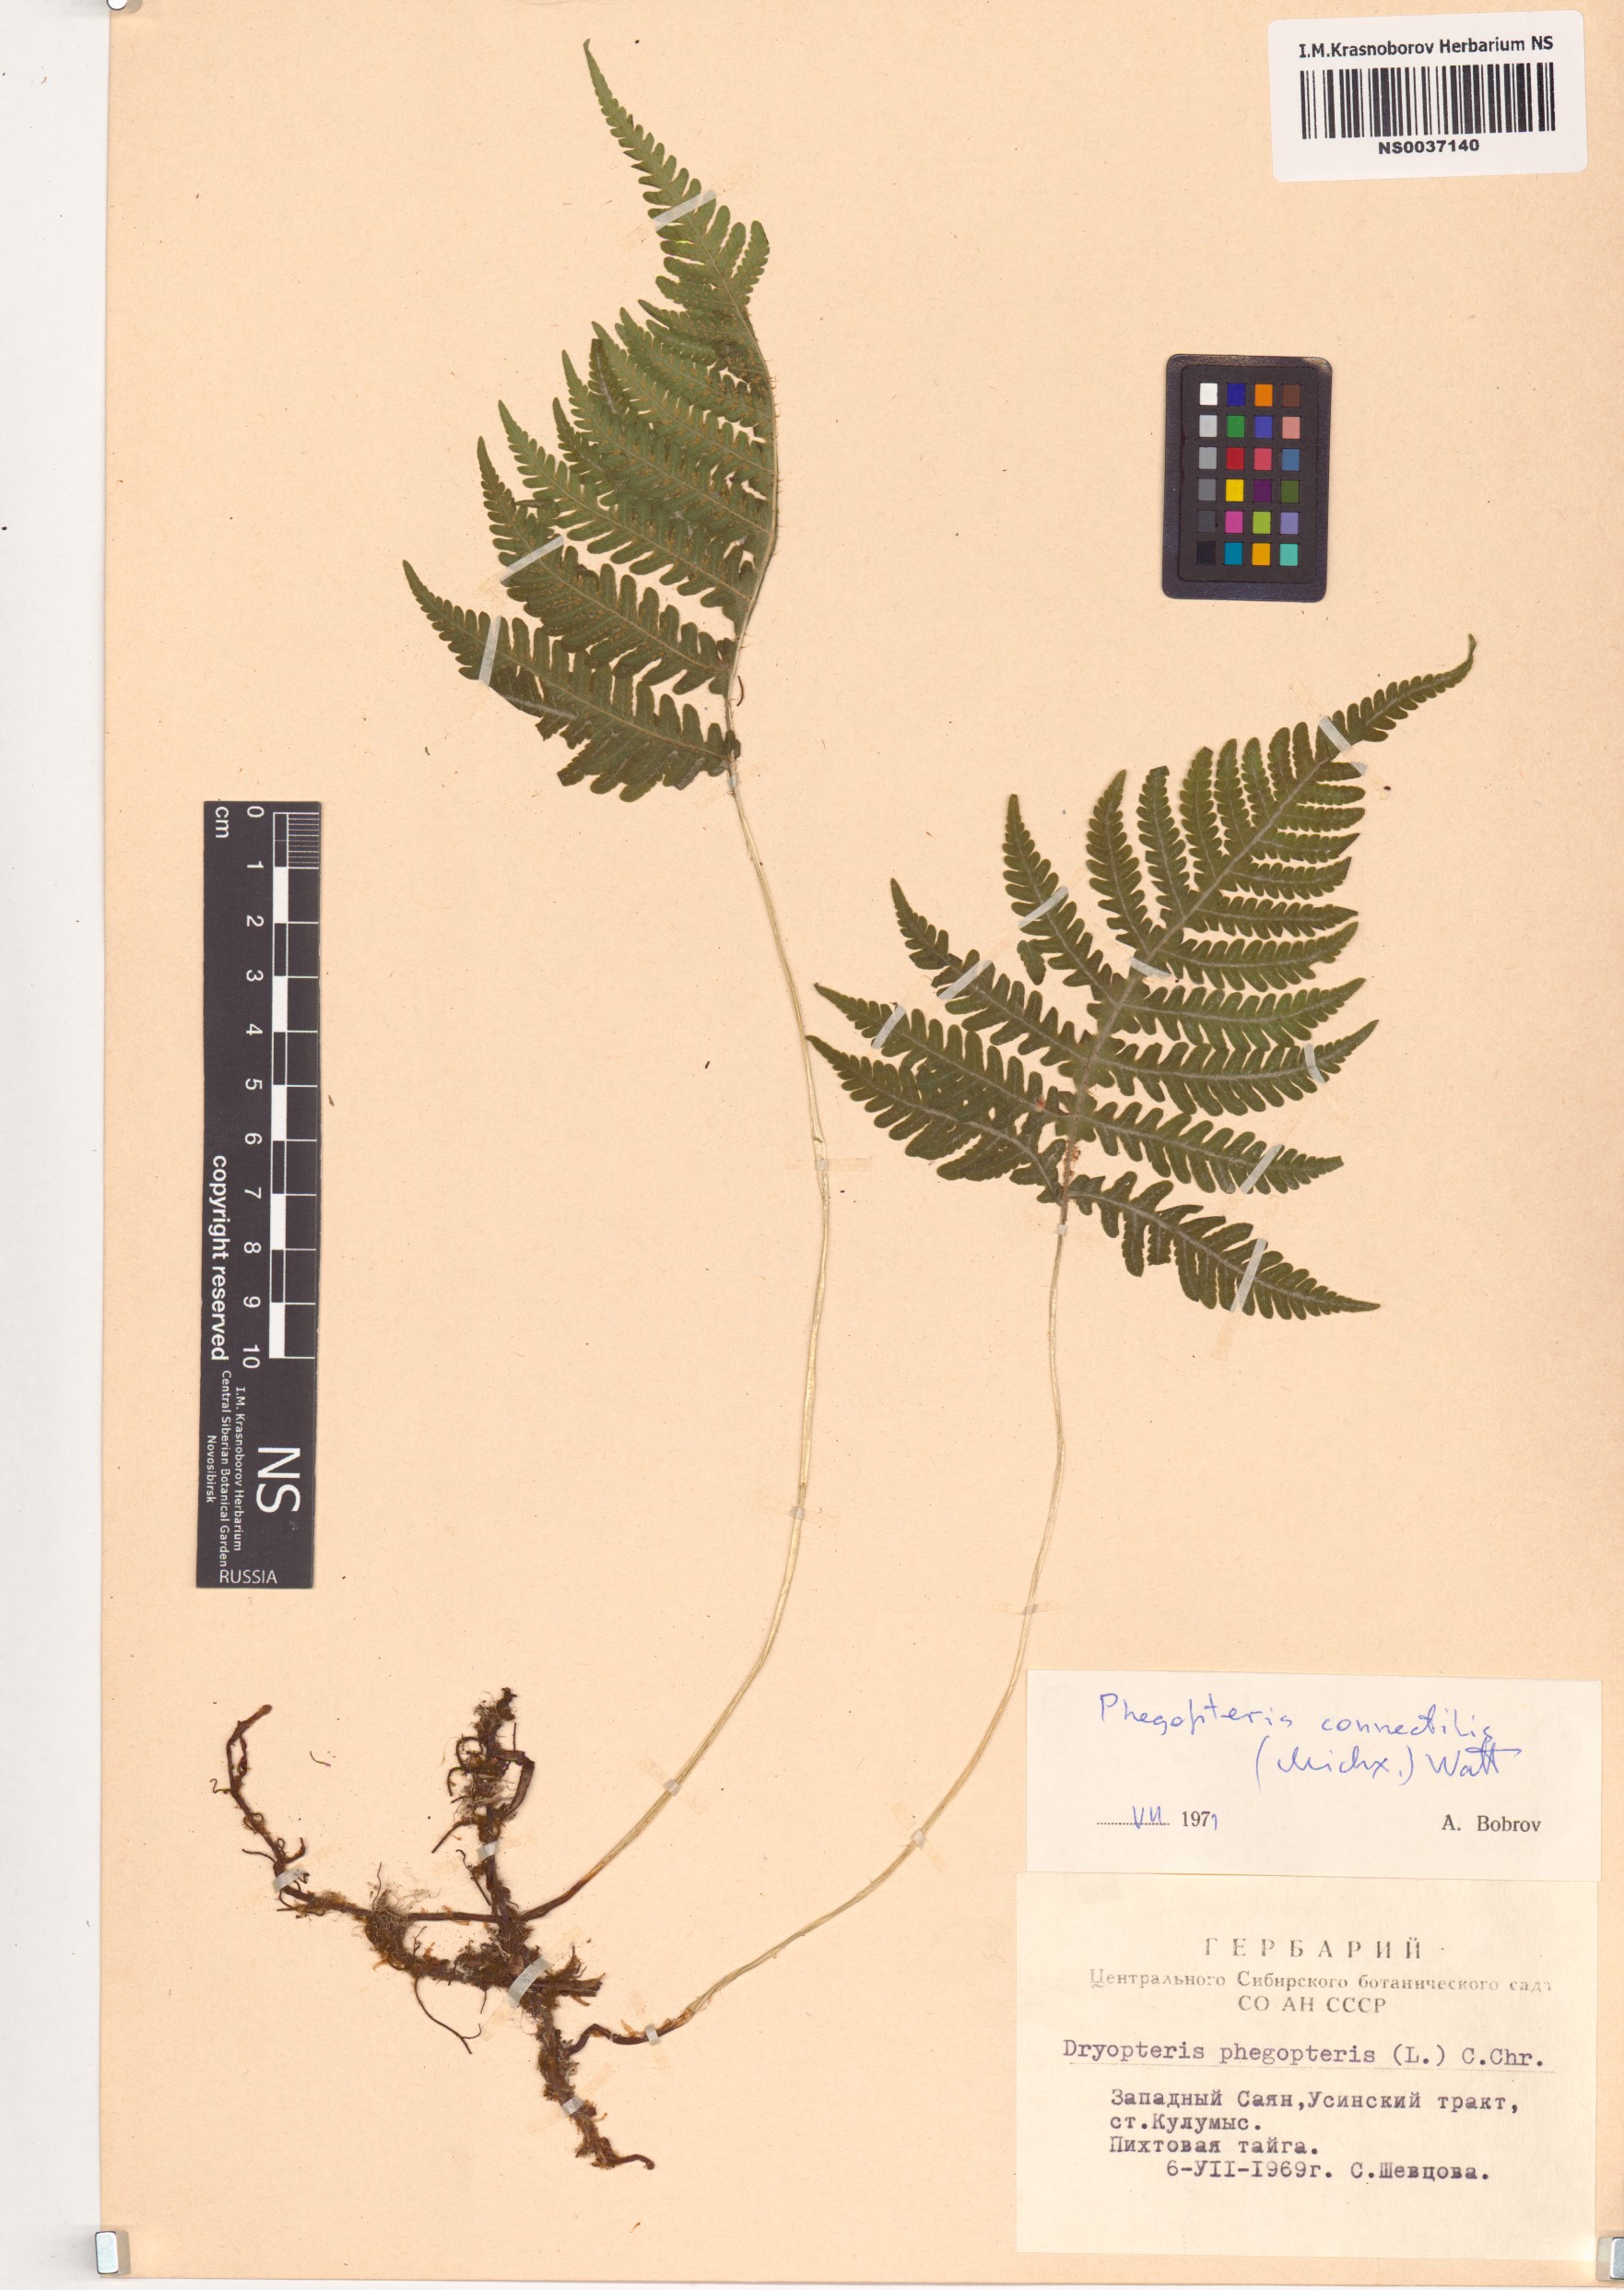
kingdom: Plantae
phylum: Tracheophyta
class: Polypodiopsida
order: Polypodiales
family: Thelypteridaceae
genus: Phegopteris
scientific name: Phegopteris connectilis
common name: Beech fern
